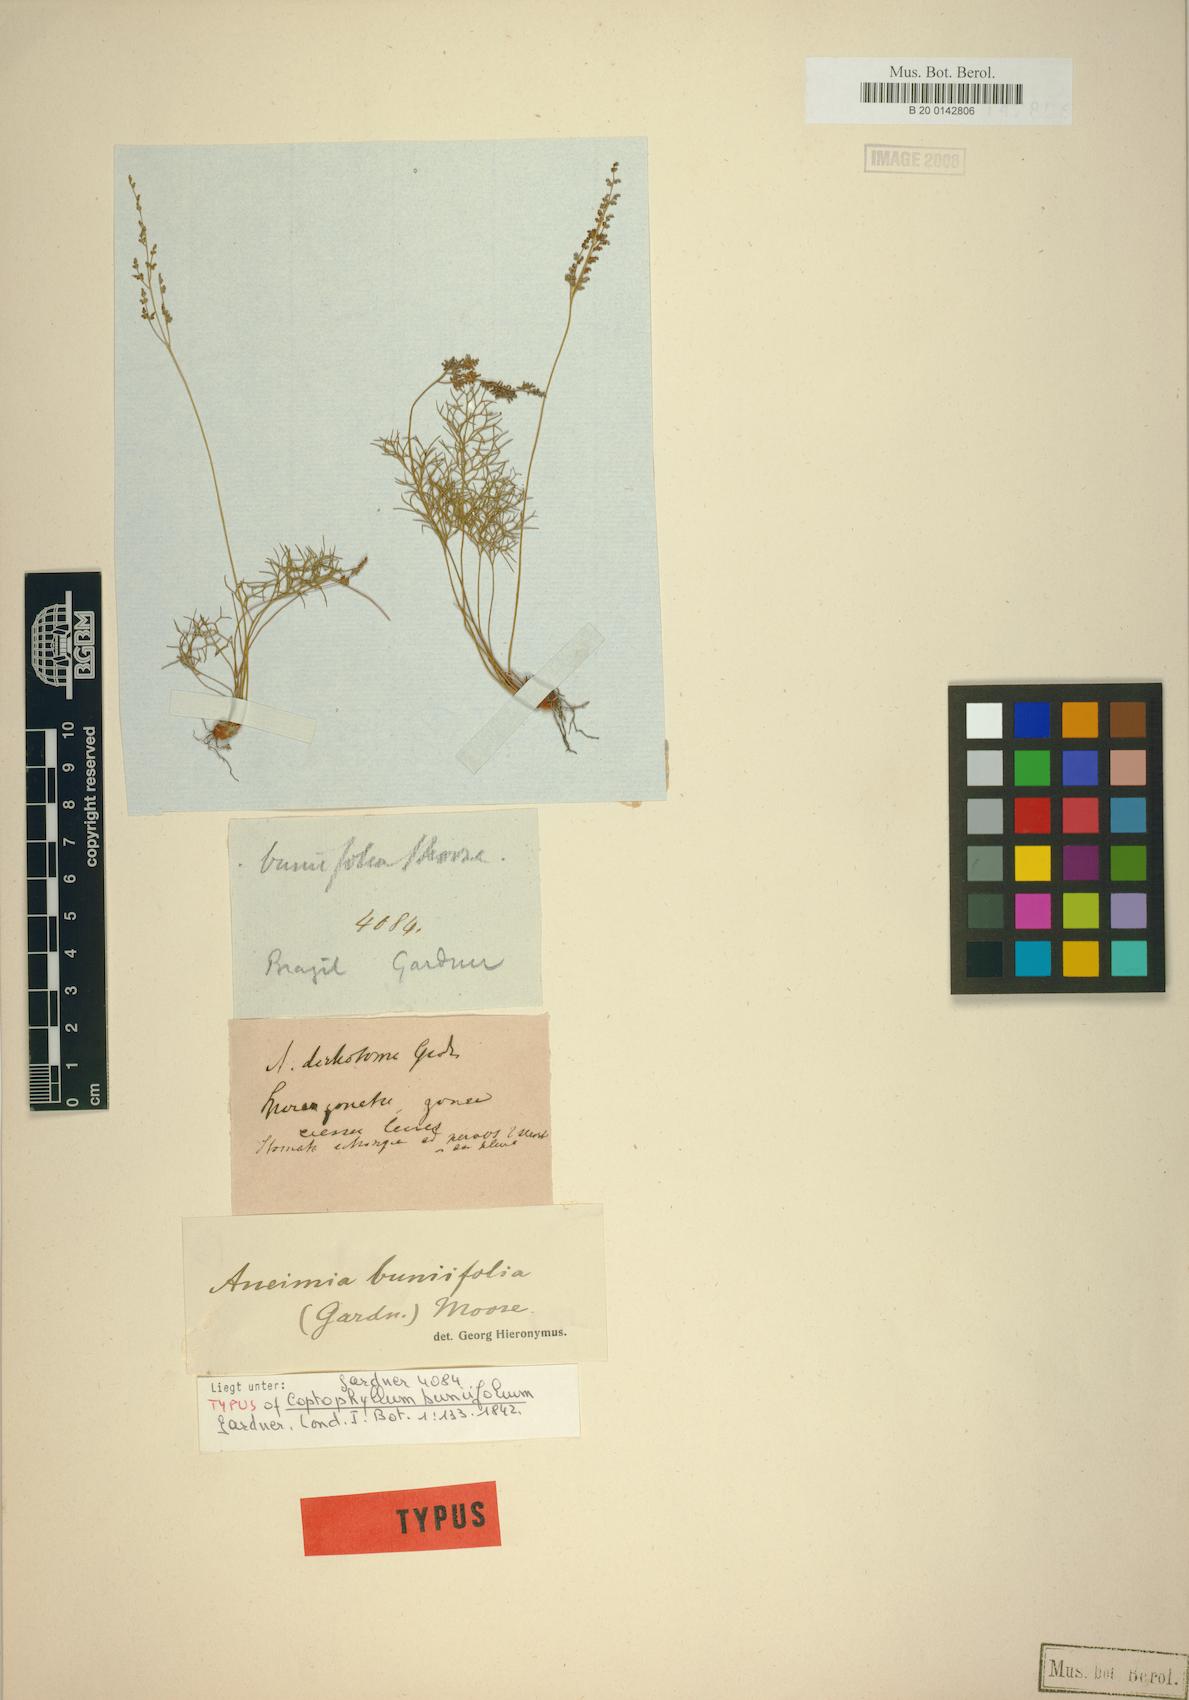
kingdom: Plantae
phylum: Tracheophyta
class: Polypodiopsida
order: Schizaeales
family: Anemiaceae
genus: Anemia
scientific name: Anemia buniifolia
